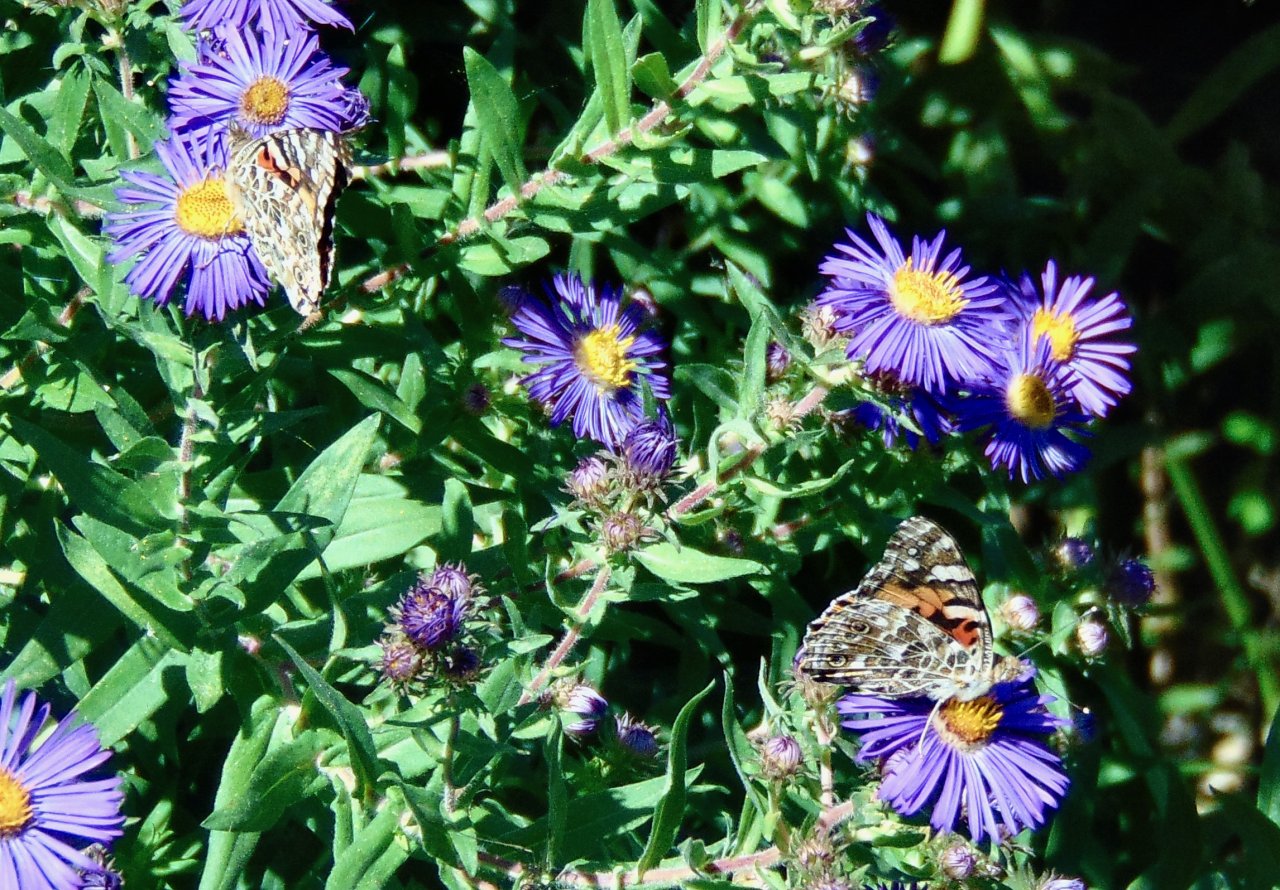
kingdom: Animalia
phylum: Arthropoda
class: Insecta
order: Lepidoptera
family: Nymphalidae
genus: Vanessa
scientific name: Vanessa cardui
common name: Painted Lady
